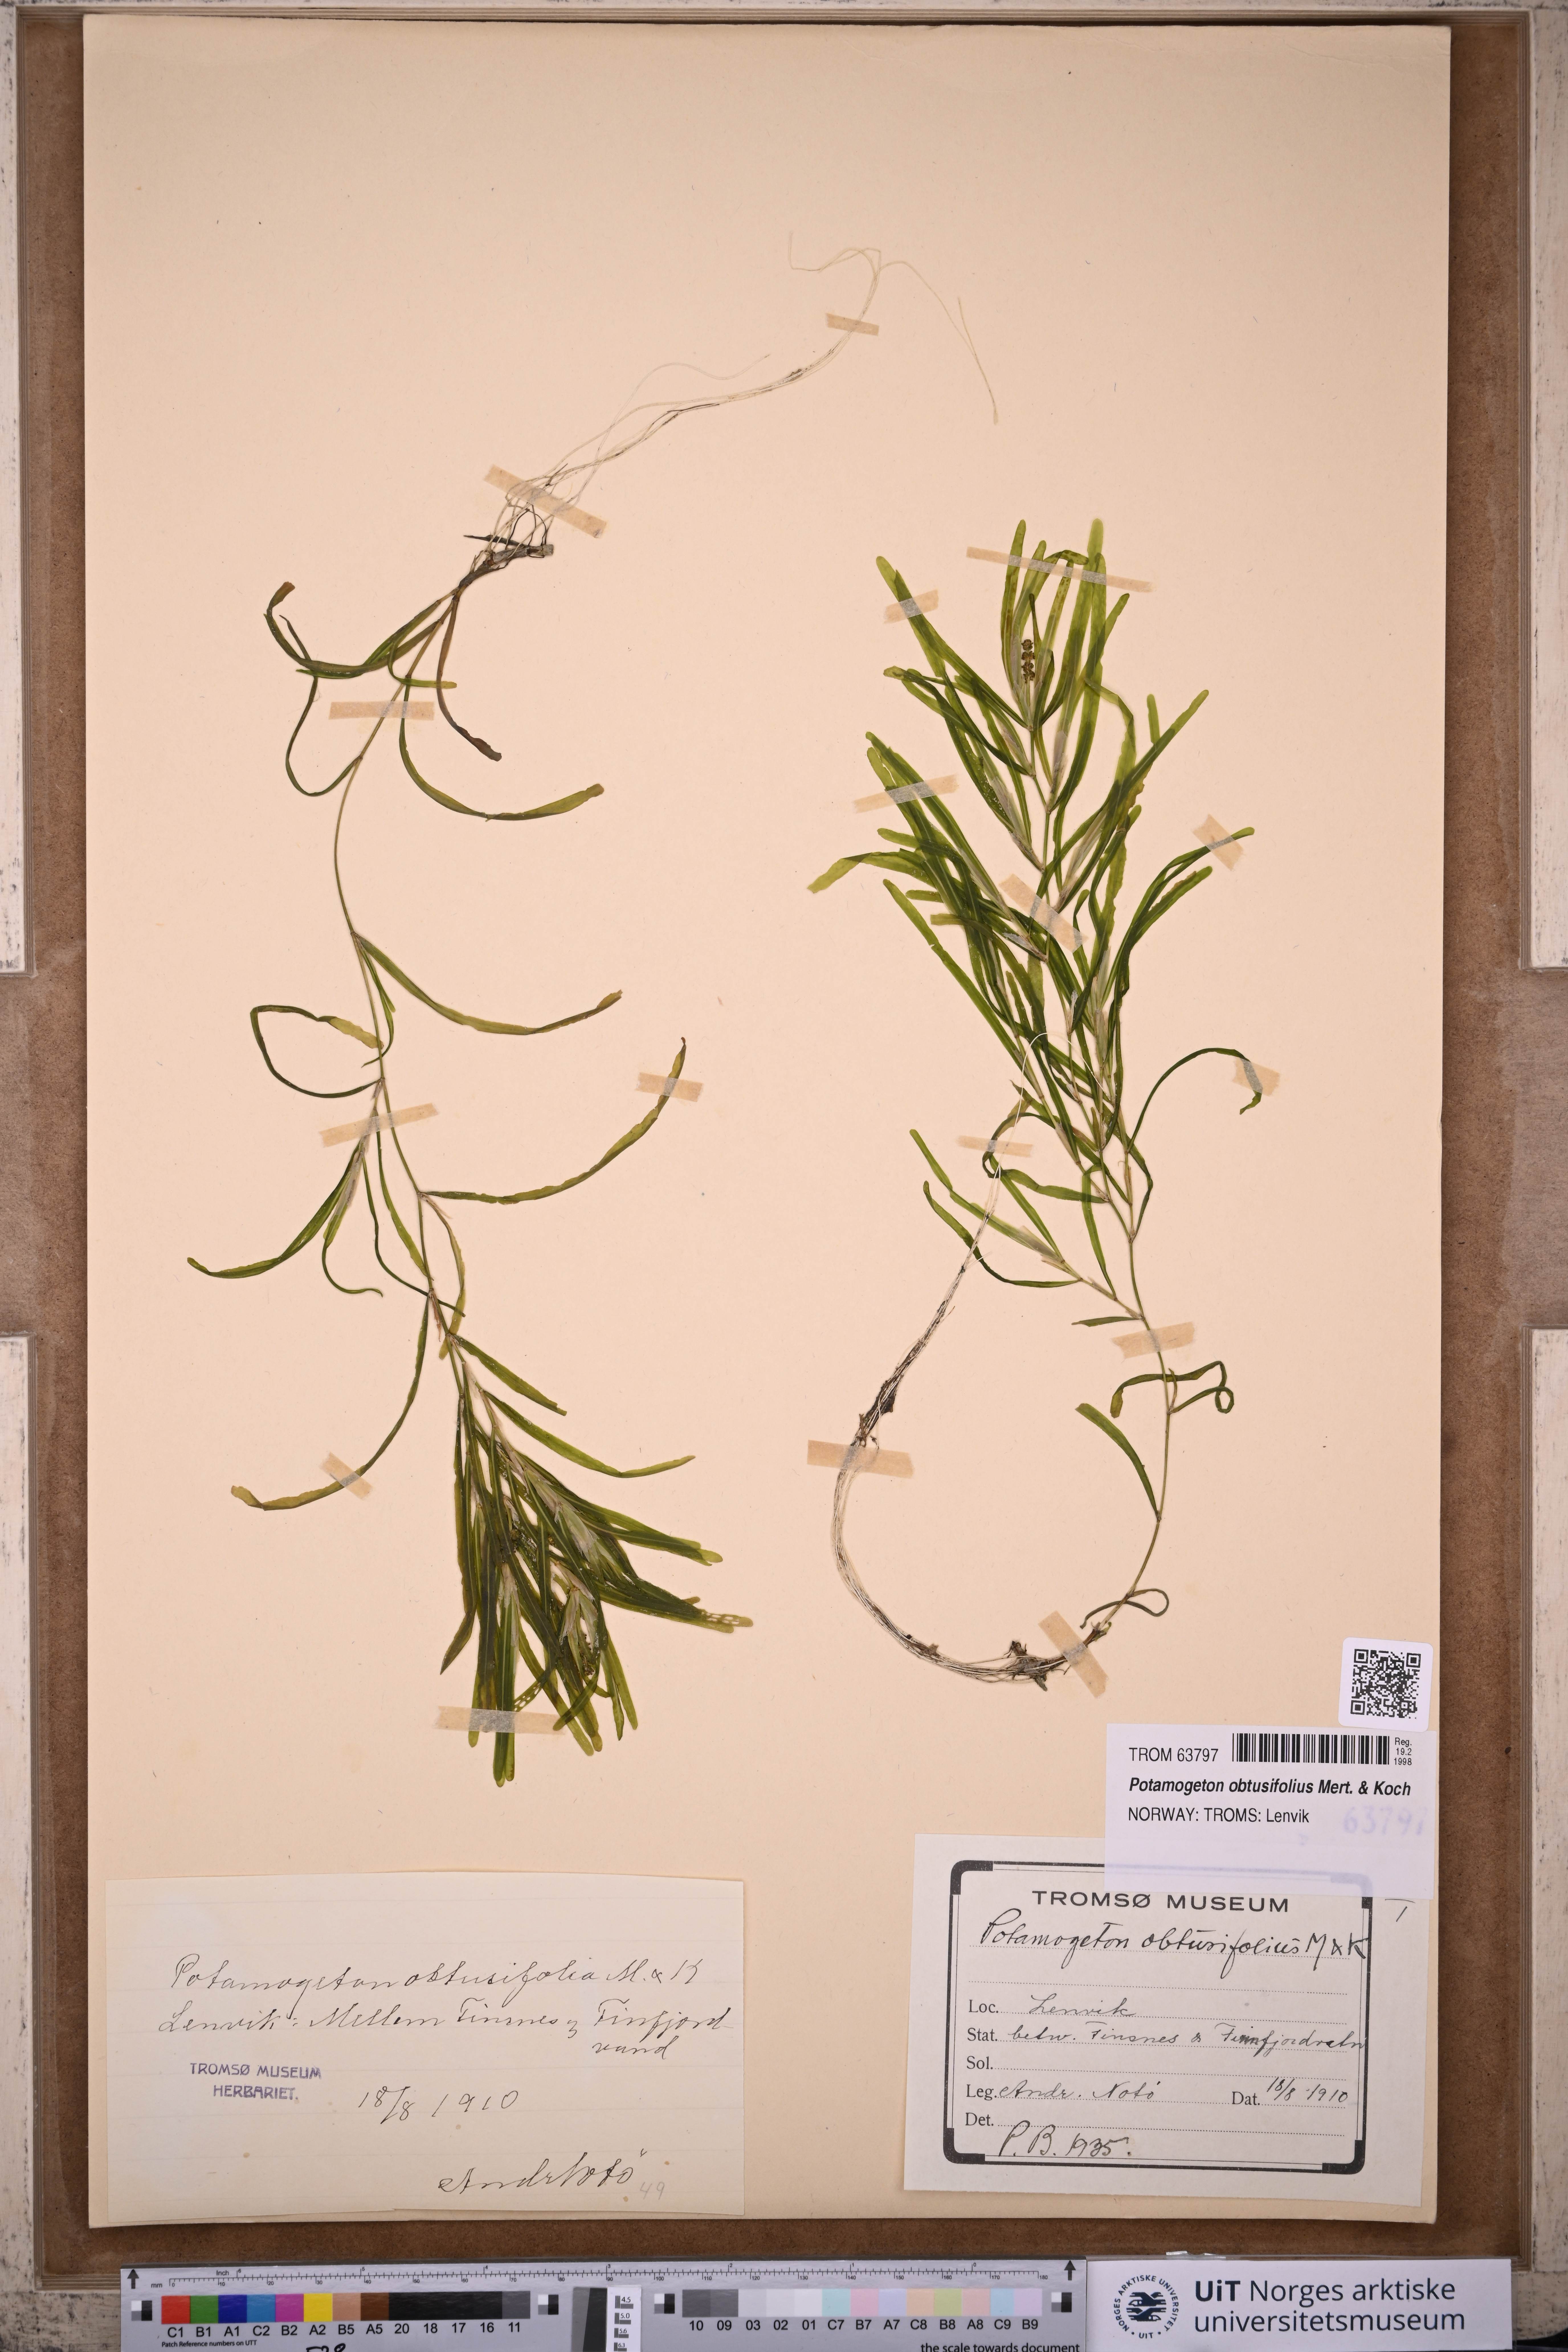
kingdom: Plantae
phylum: Tracheophyta
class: Liliopsida
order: Alismatales
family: Potamogetonaceae
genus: Potamogeton
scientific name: Potamogeton obtusifolius
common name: Blunt-leaved pondweed
